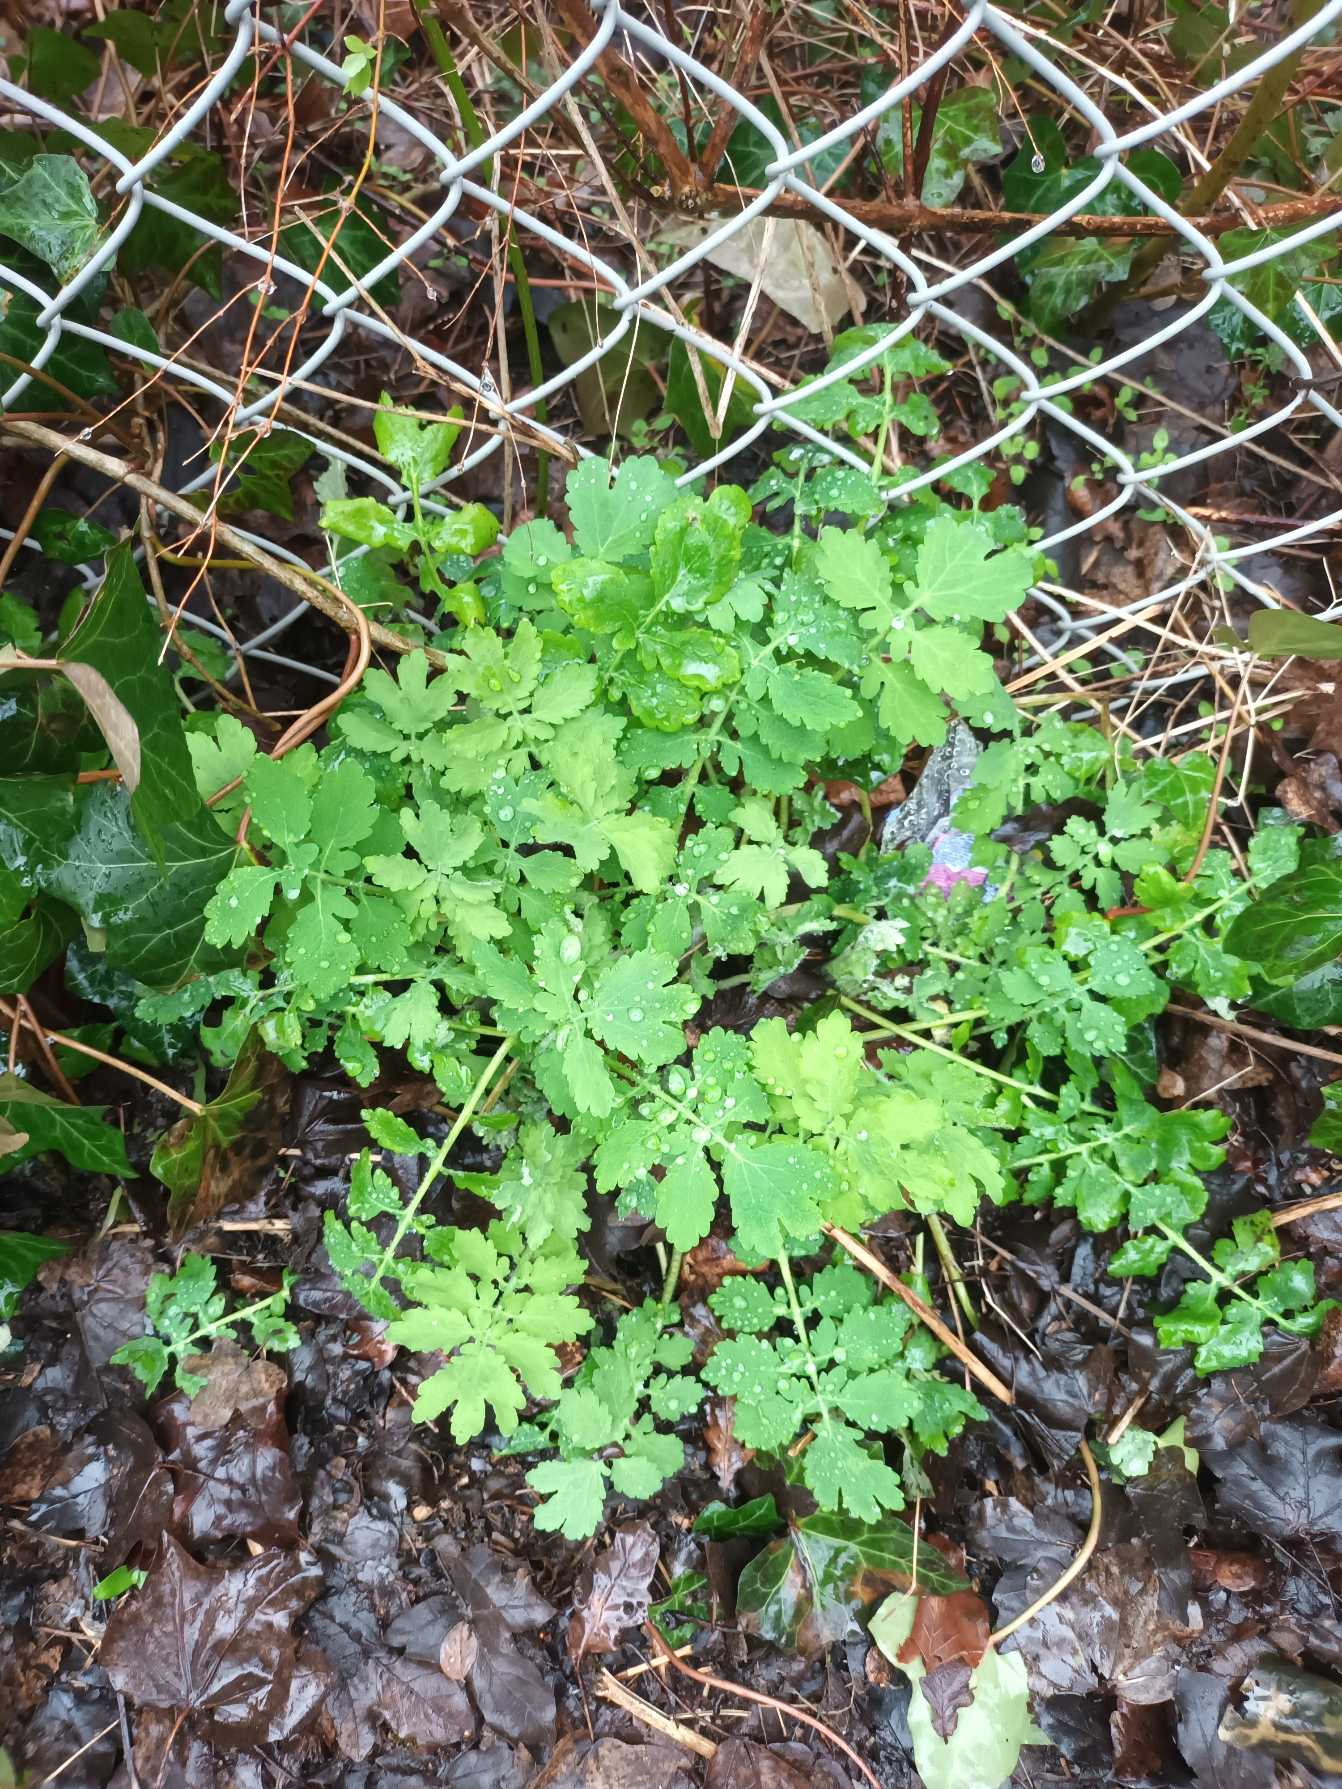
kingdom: Plantae
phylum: Tracheophyta
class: Magnoliopsida
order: Ranunculales
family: Papaveraceae
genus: Chelidonium
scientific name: Chelidonium majus
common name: Svaleurt
